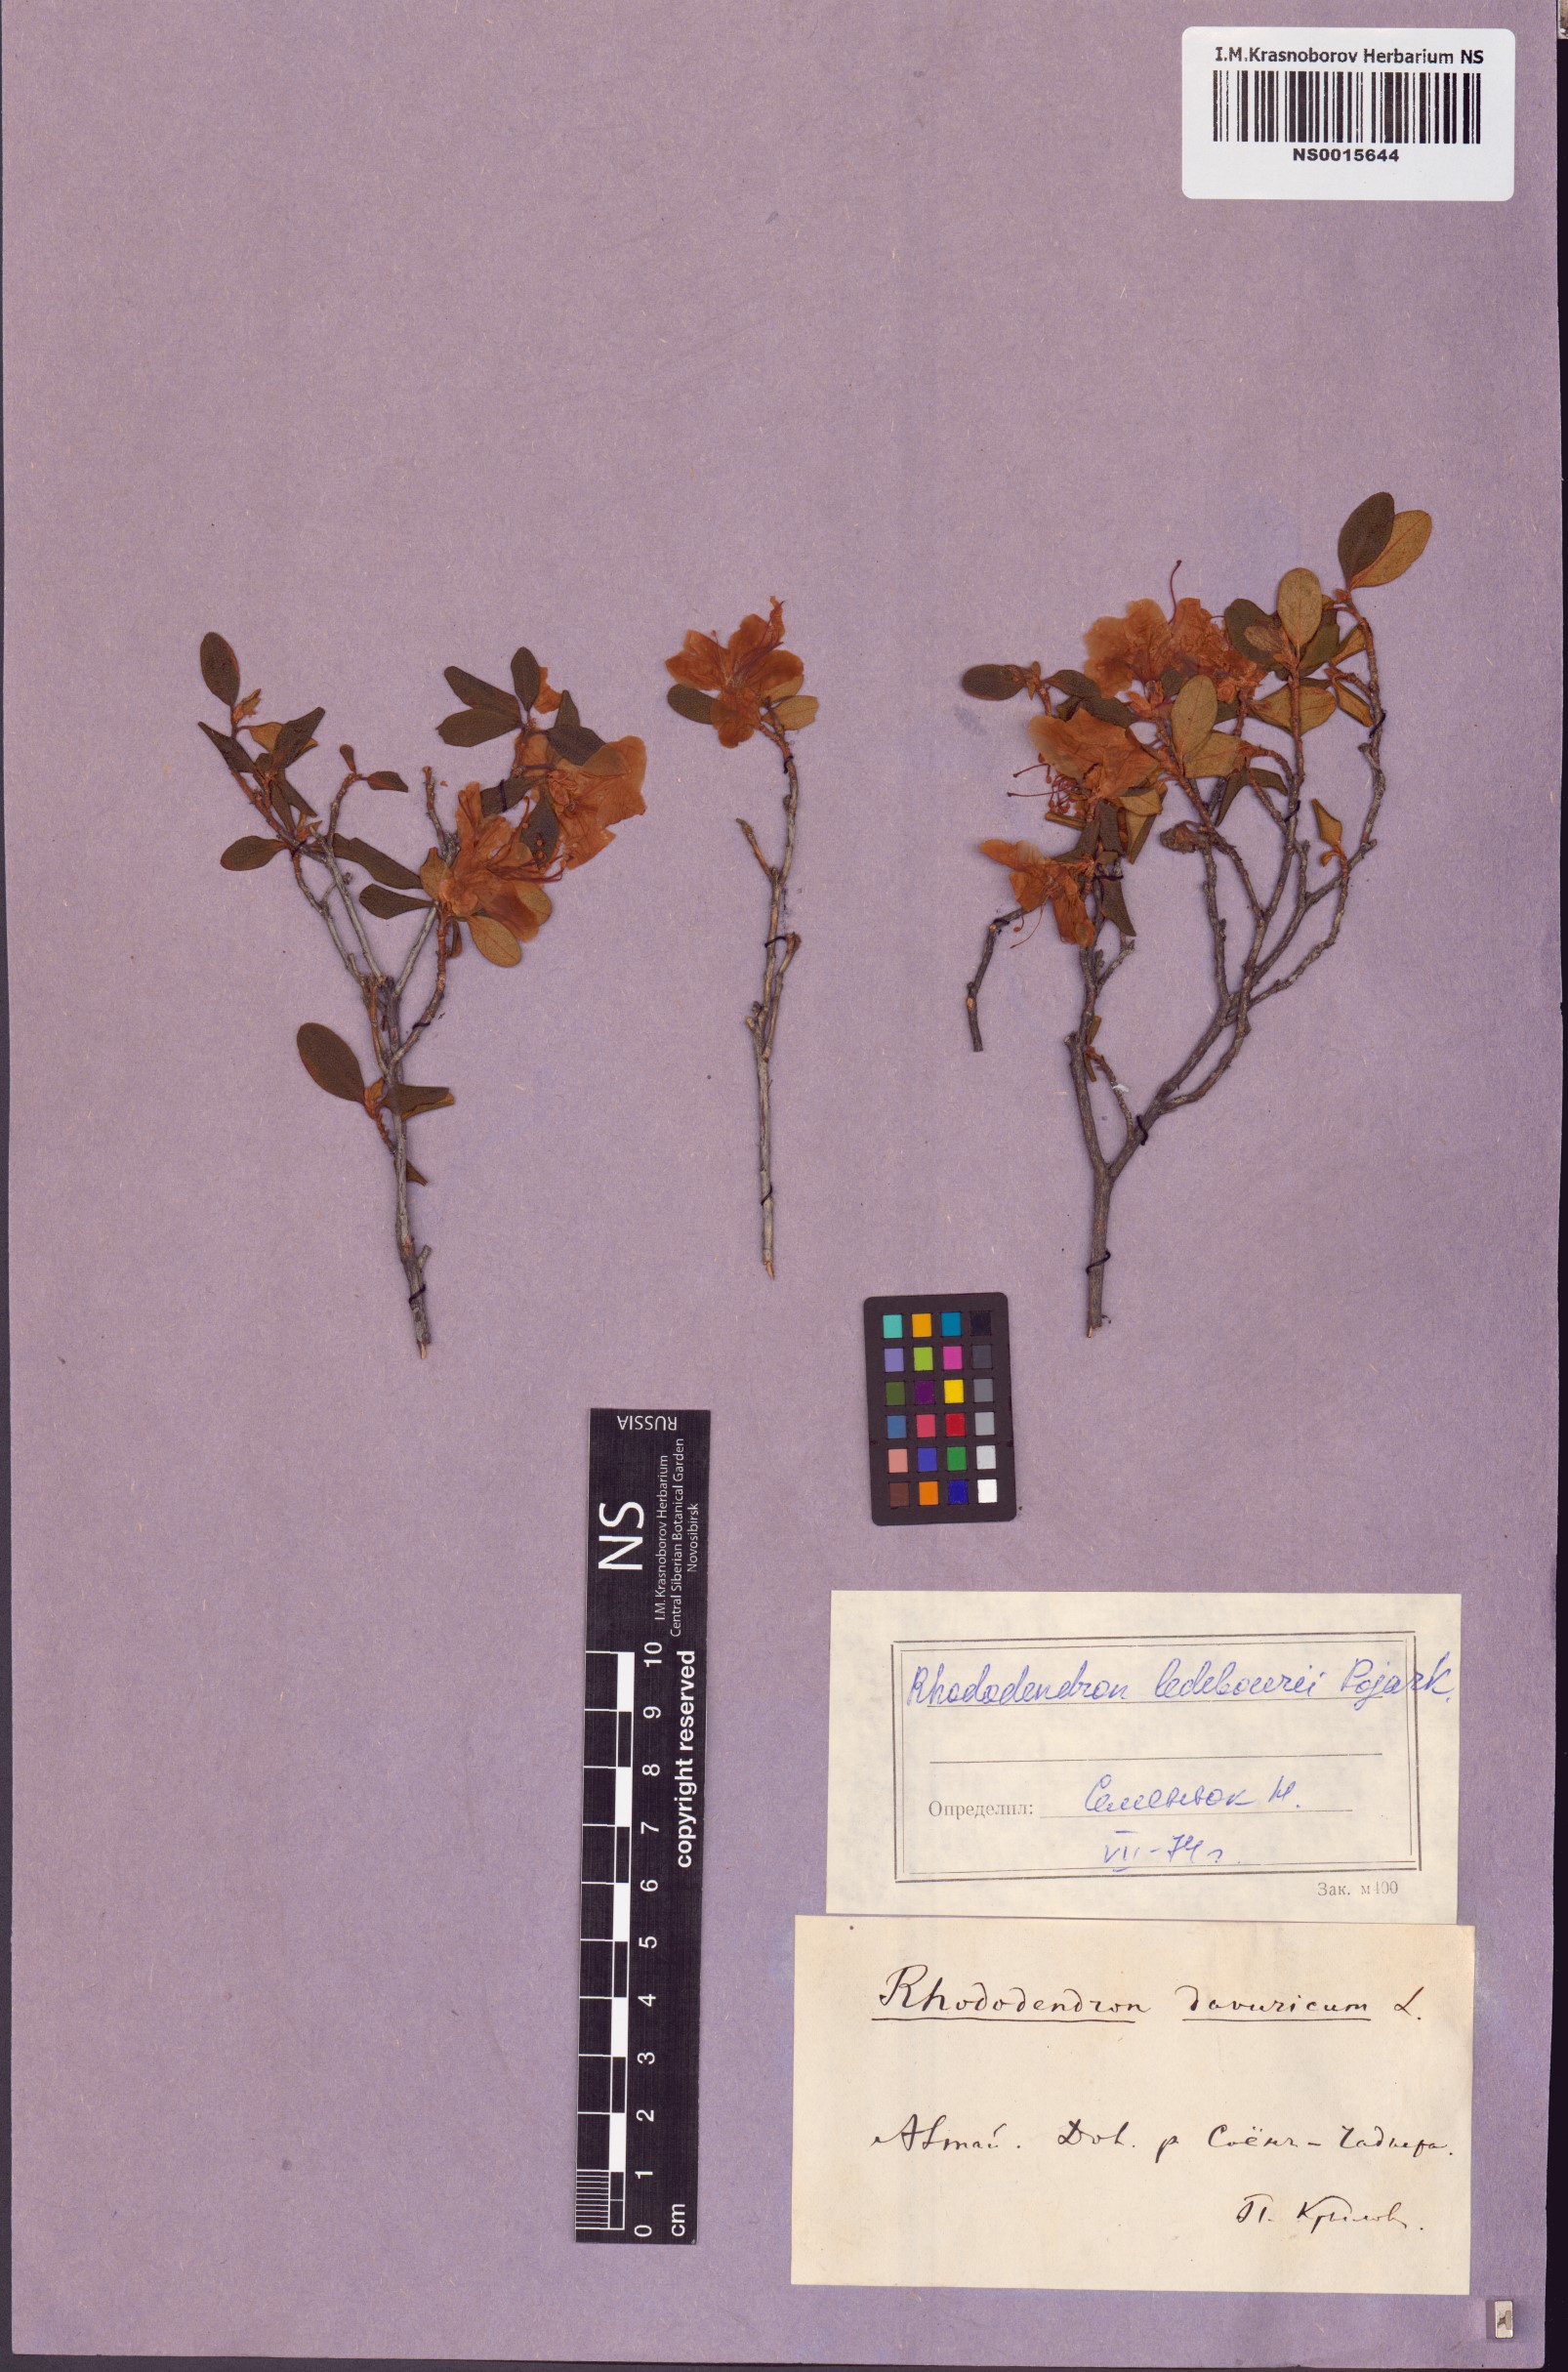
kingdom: Plantae
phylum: Tracheophyta
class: Magnoliopsida
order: Ericales
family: Ericaceae
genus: Rhododendron
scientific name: Rhododendron dauricum
